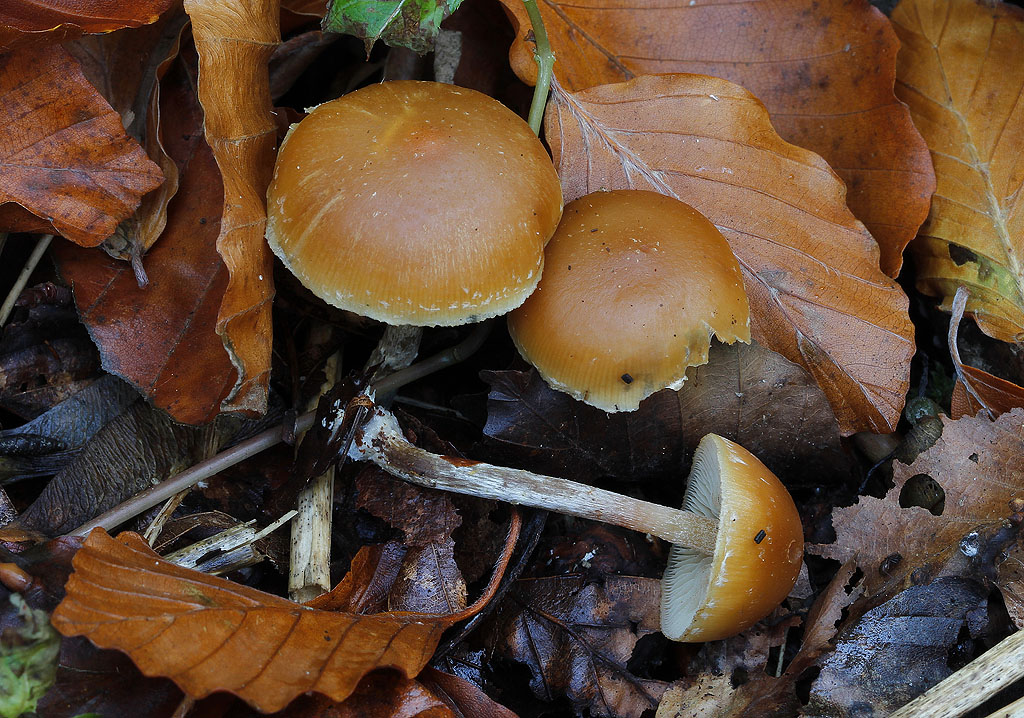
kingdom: Fungi
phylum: Basidiomycota
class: Agaricomycetes
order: Agaricales
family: Hymenogastraceae
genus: Galerina
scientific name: Galerina sideroides
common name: træflis-hjelmhat
